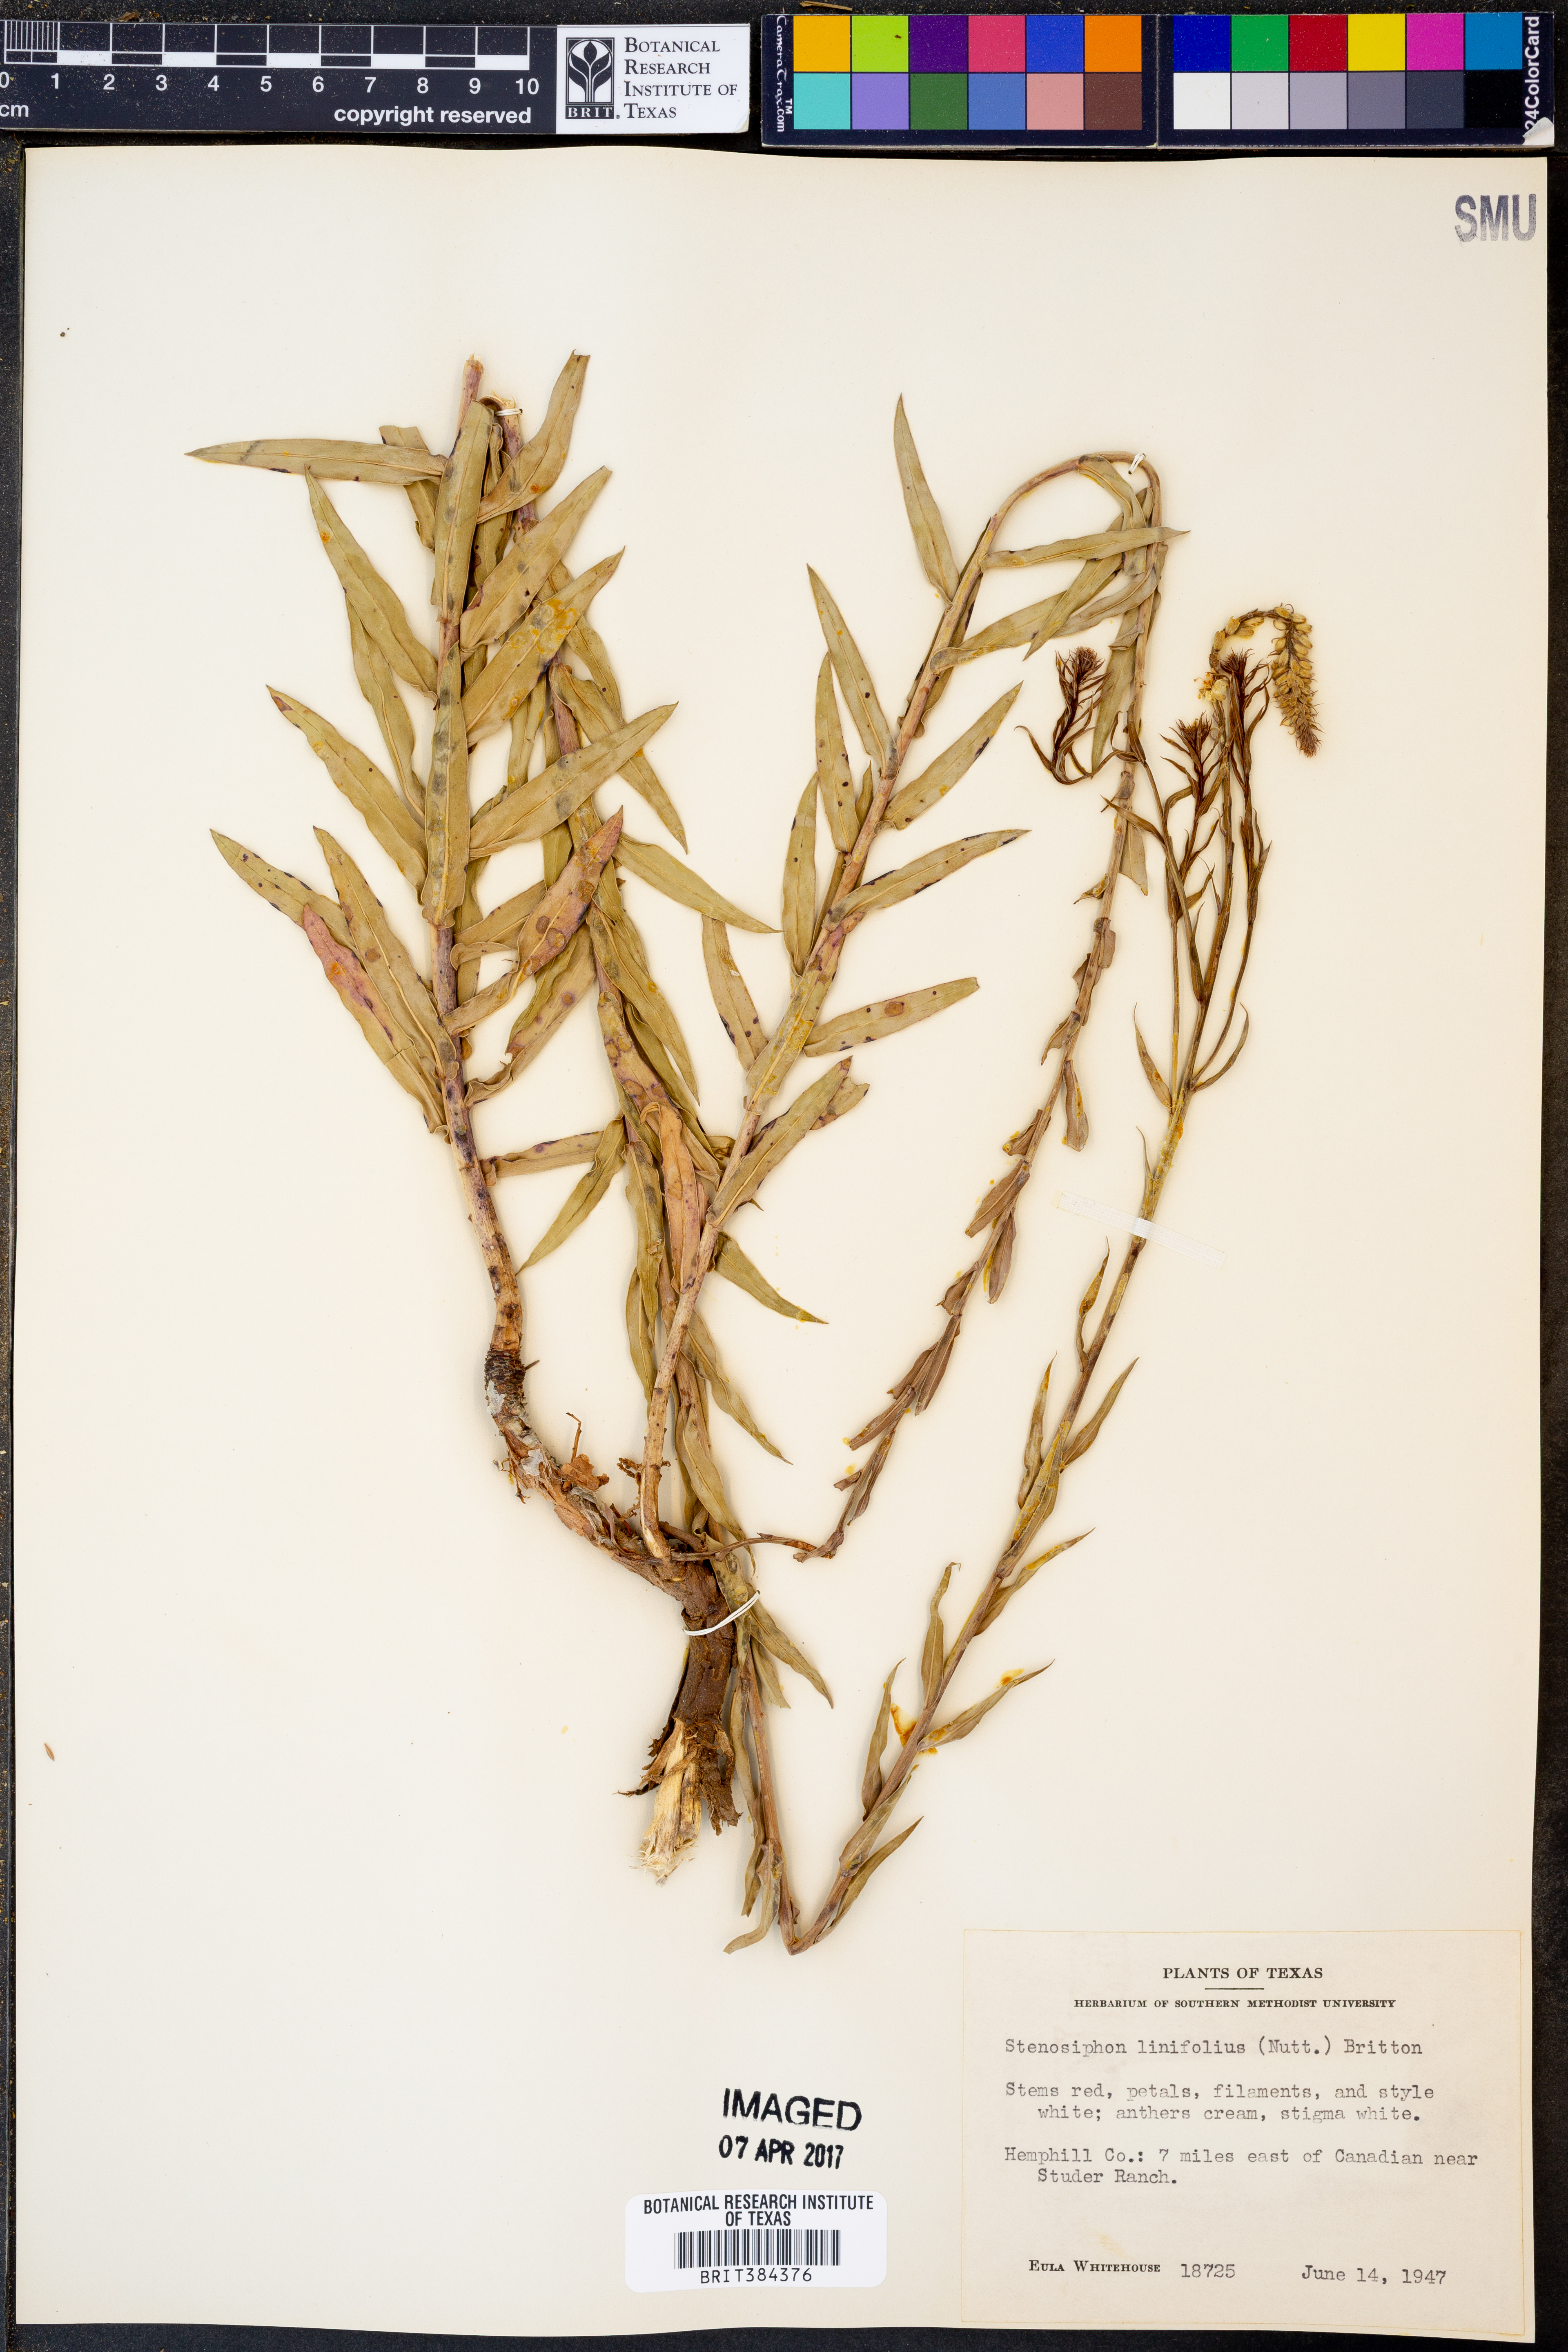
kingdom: Plantae
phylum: Tracheophyta
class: Magnoliopsida
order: Myrtales
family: Onagraceae
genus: Oenothera
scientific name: Oenothera glaucifolia
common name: False gaura
